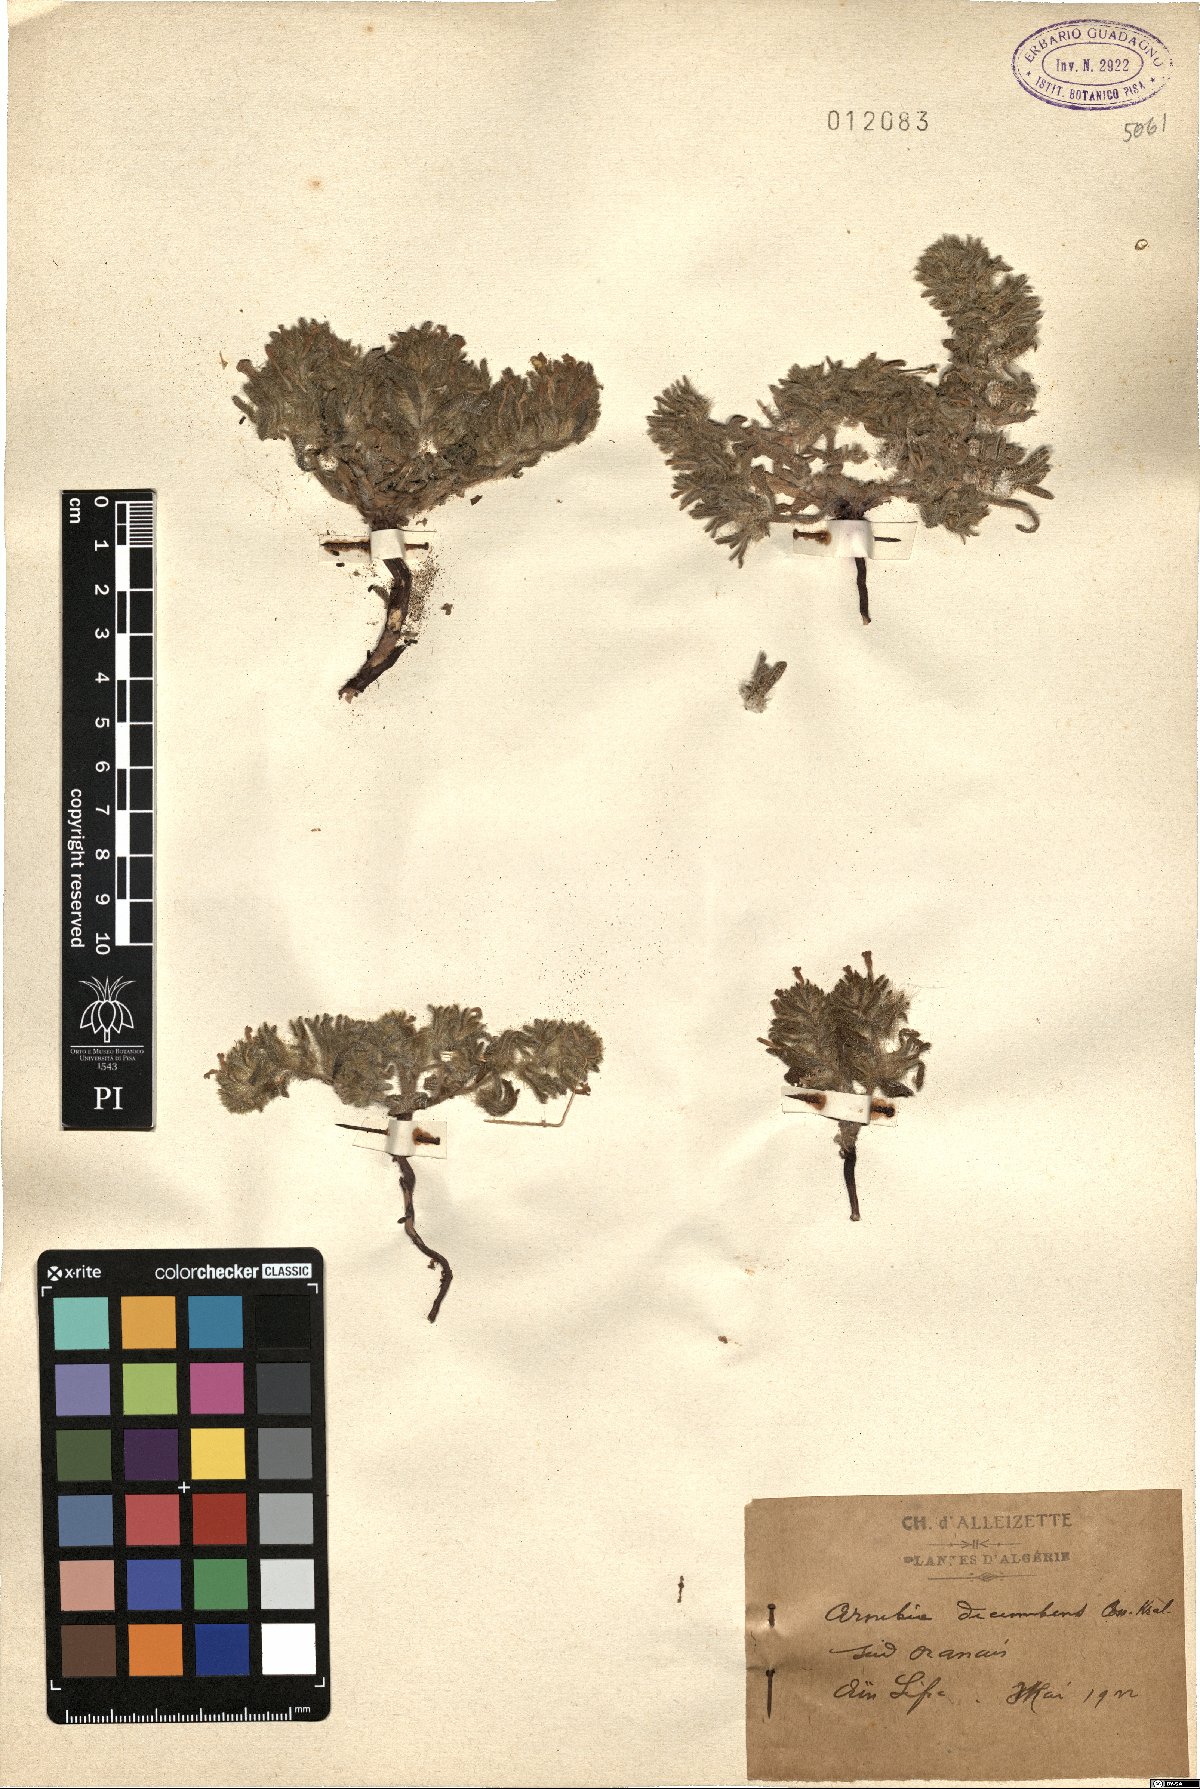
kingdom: Plantae
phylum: Tracheophyta
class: Magnoliopsida
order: Boraginales
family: Boraginaceae
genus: Arnebia
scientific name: Arnebia decumbens
